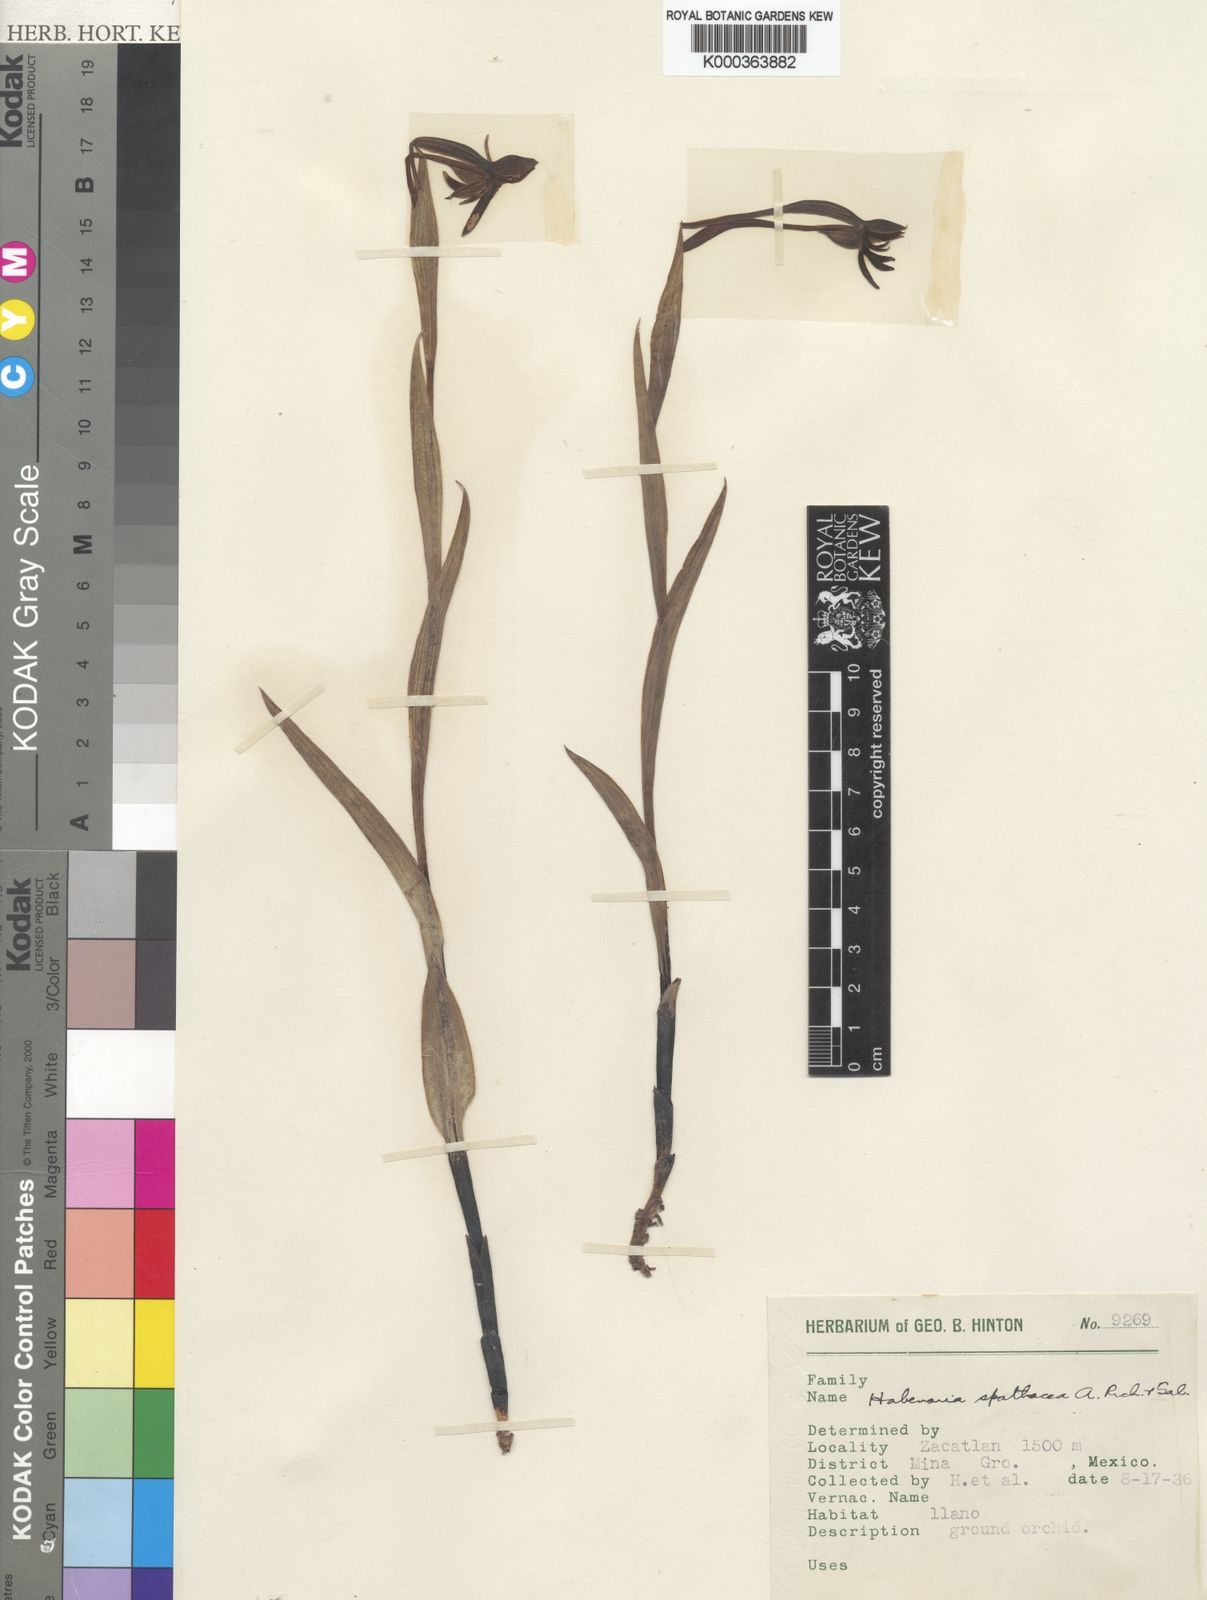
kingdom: Plantae
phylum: Tracheophyta
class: Liliopsida
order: Asparagales
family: Orchidaceae
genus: Habenaria
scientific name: Habenaria trifida
